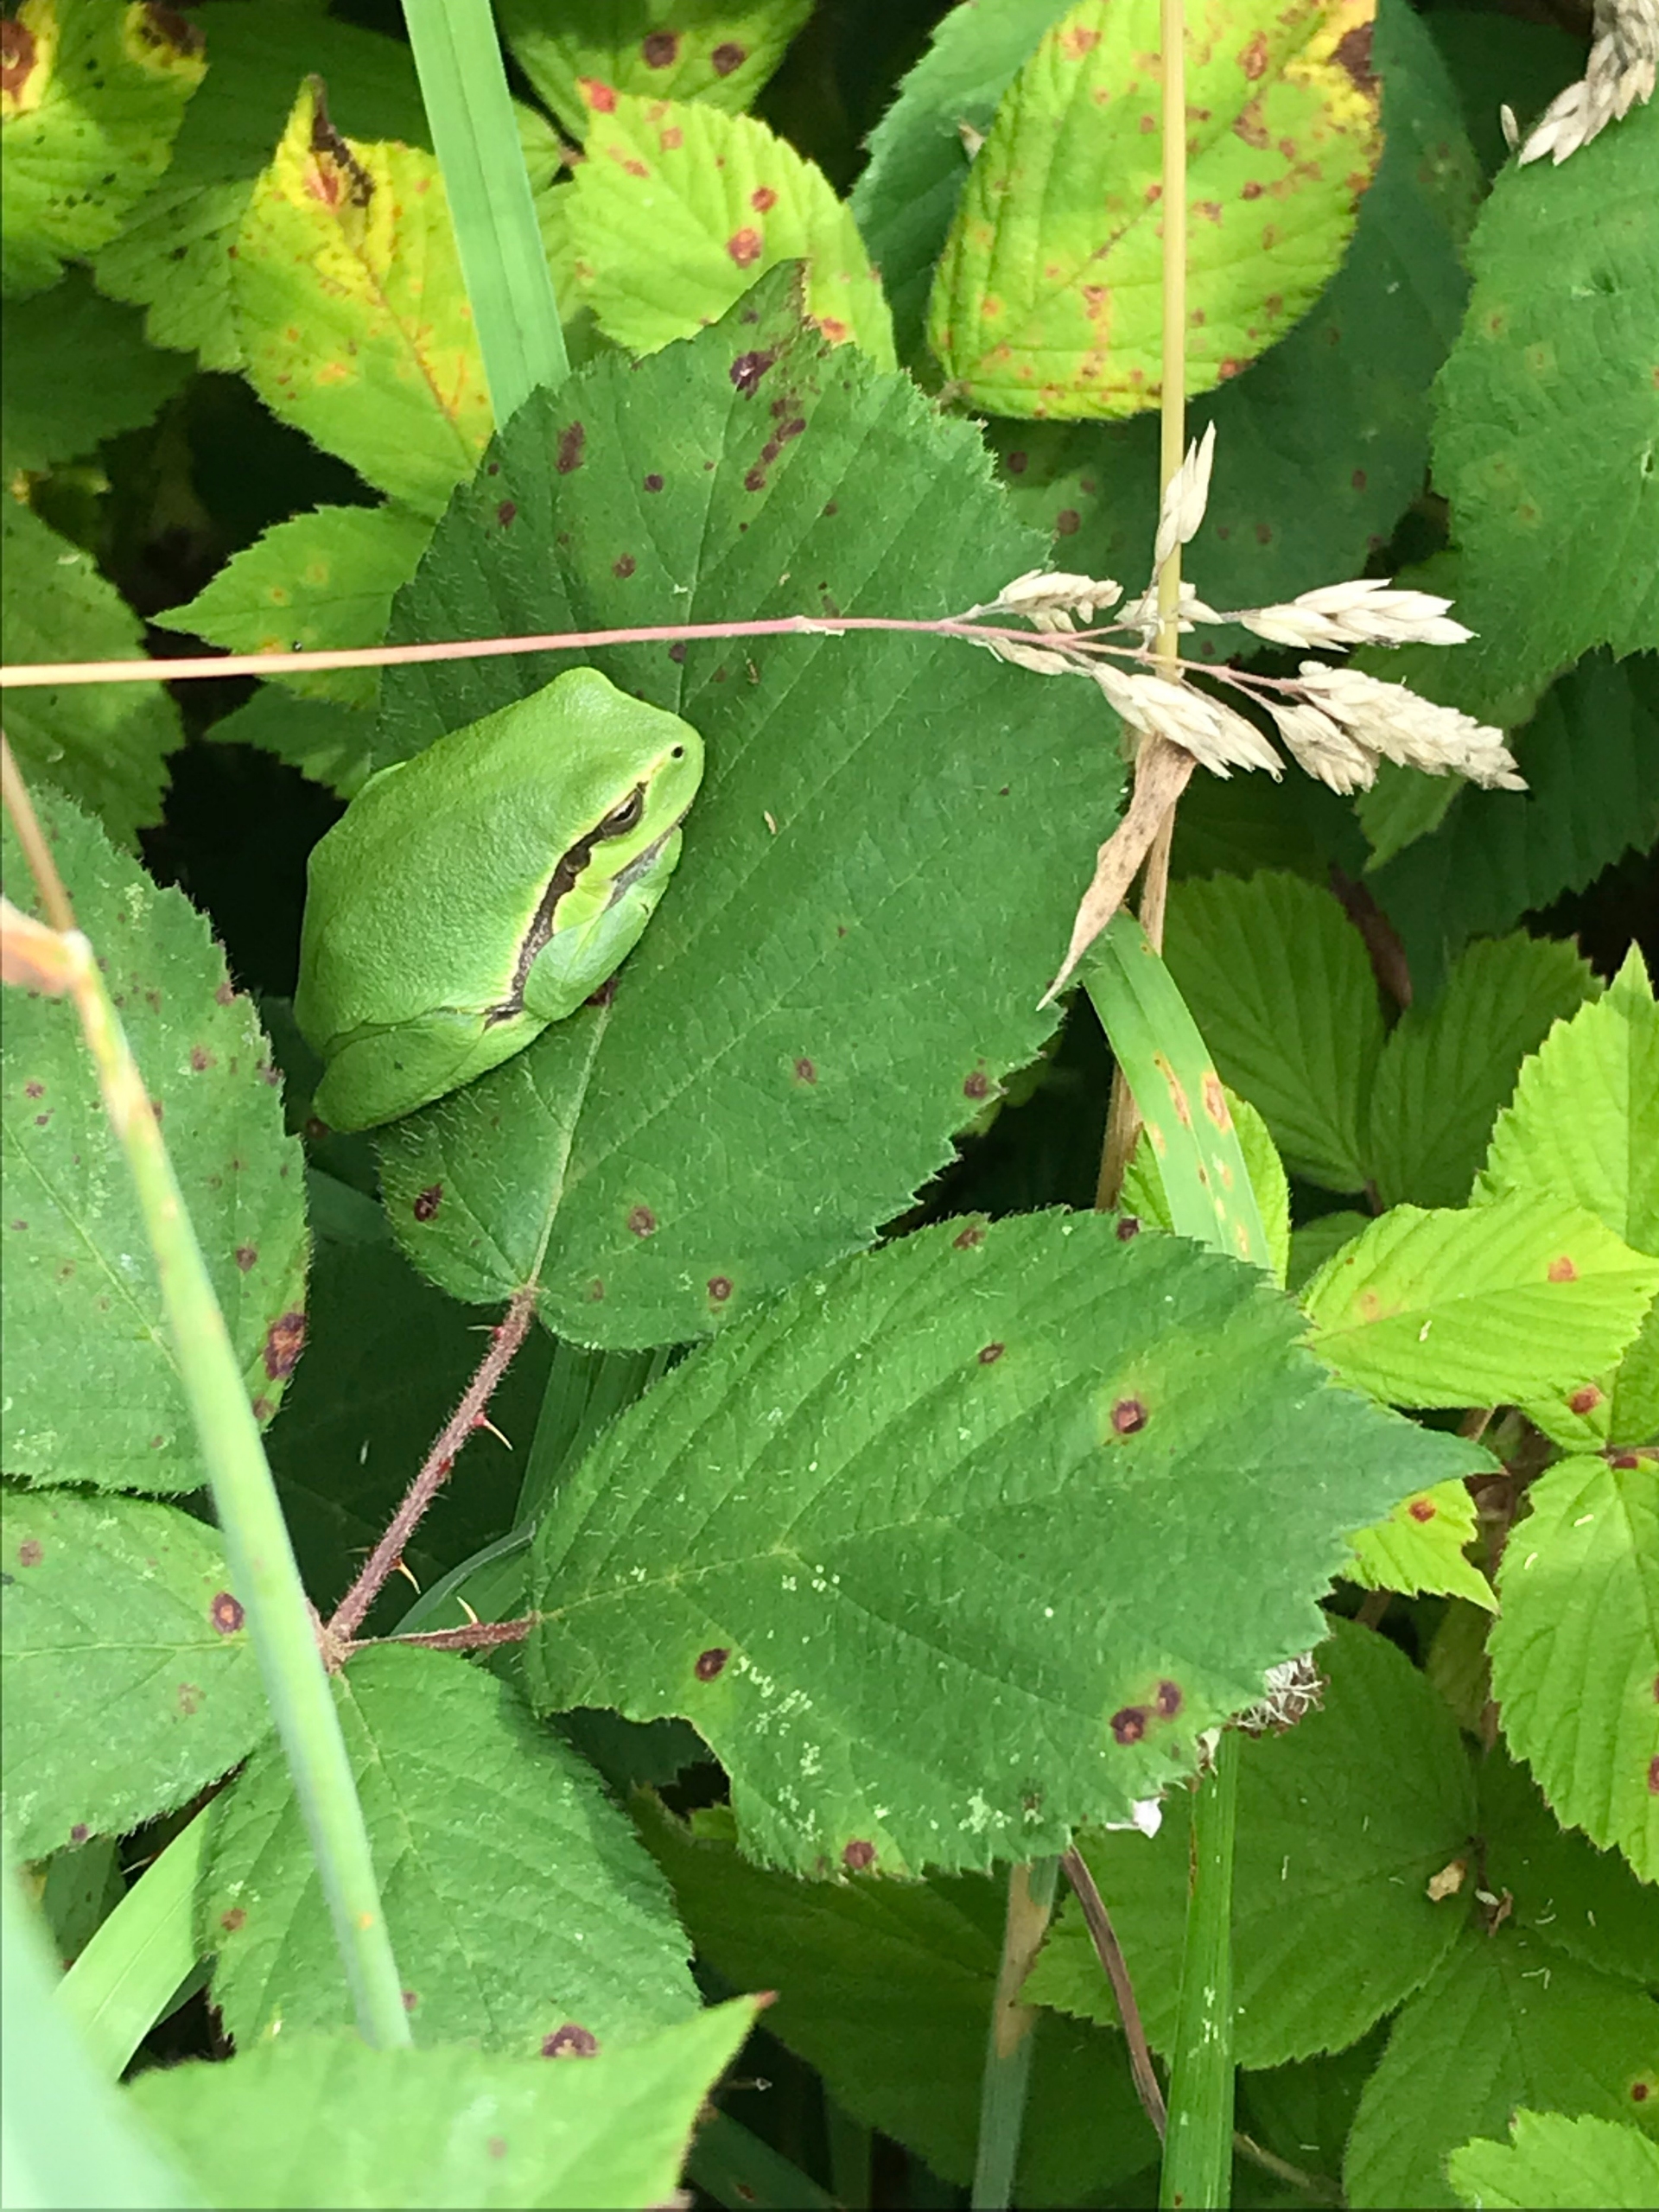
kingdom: Animalia
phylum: Chordata
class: Amphibia
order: Anura
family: Hylidae
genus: Hyla
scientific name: Hyla arborea
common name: Løvfrø
